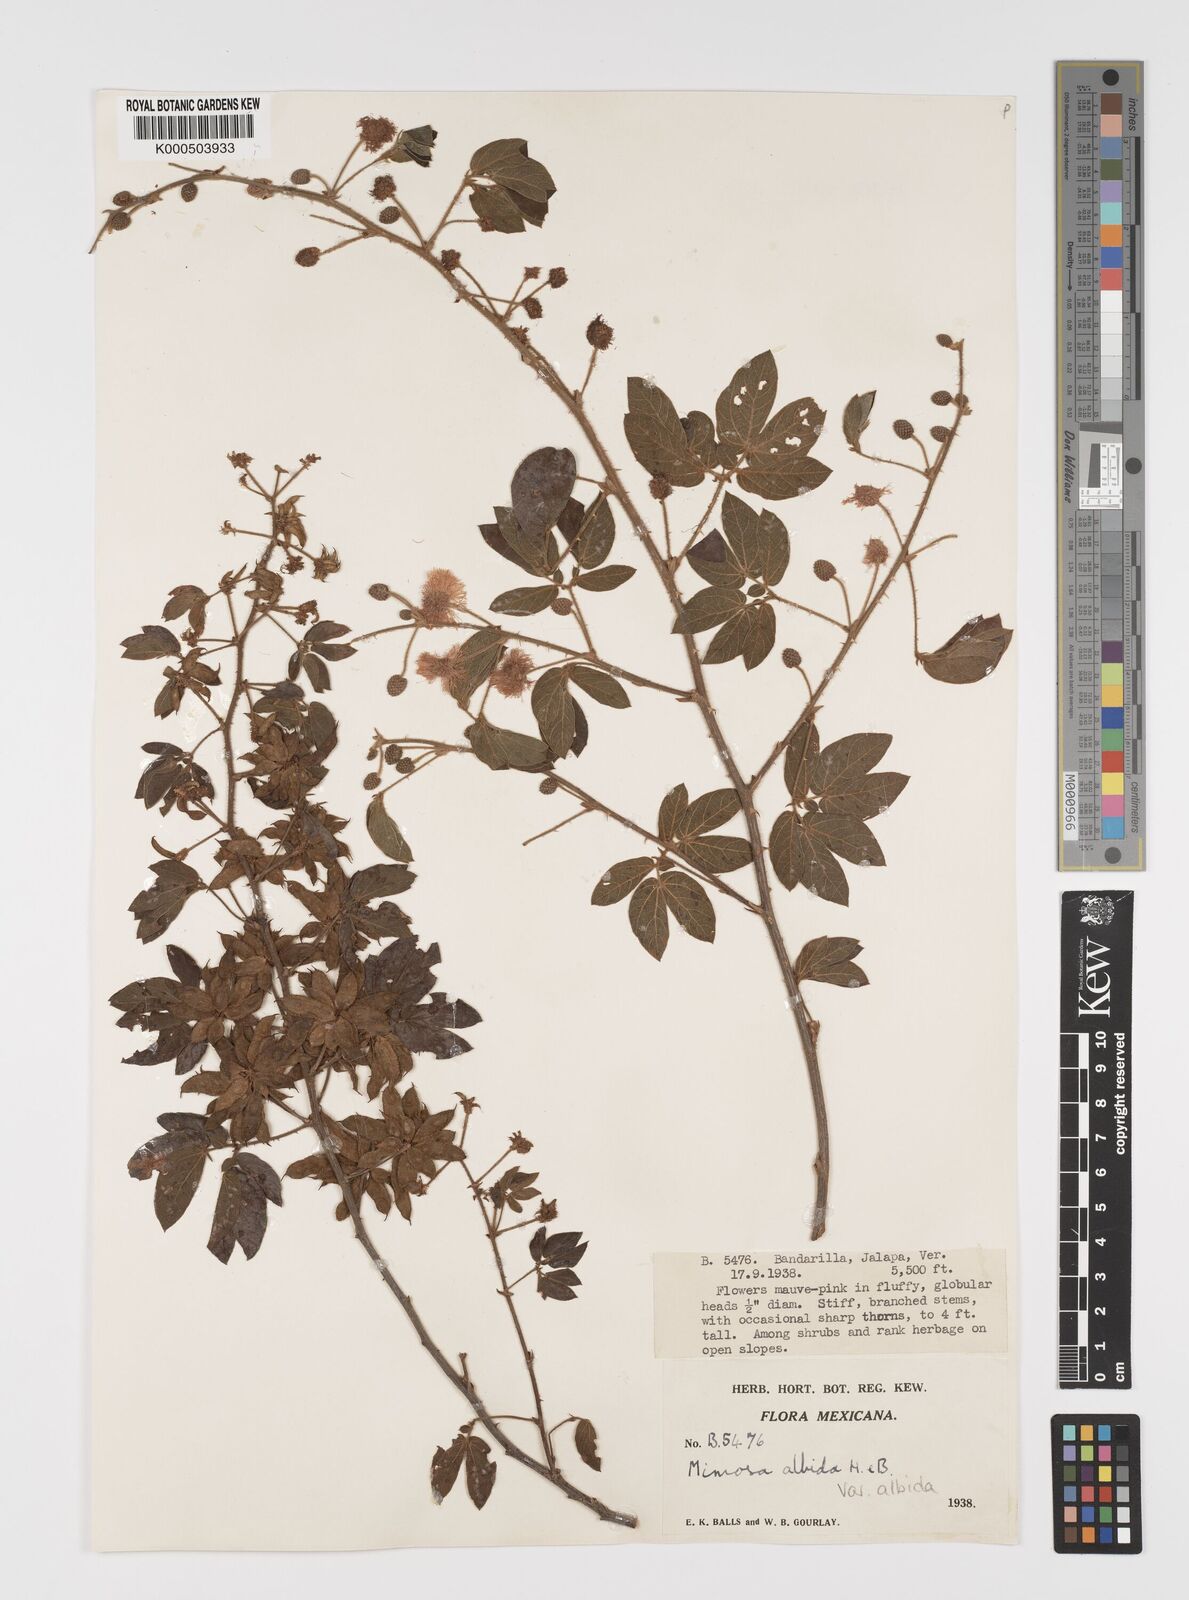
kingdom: Plantae
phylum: Tracheophyta
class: Magnoliopsida
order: Fabales
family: Fabaceae
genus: Mimosa
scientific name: Mimosa albida
